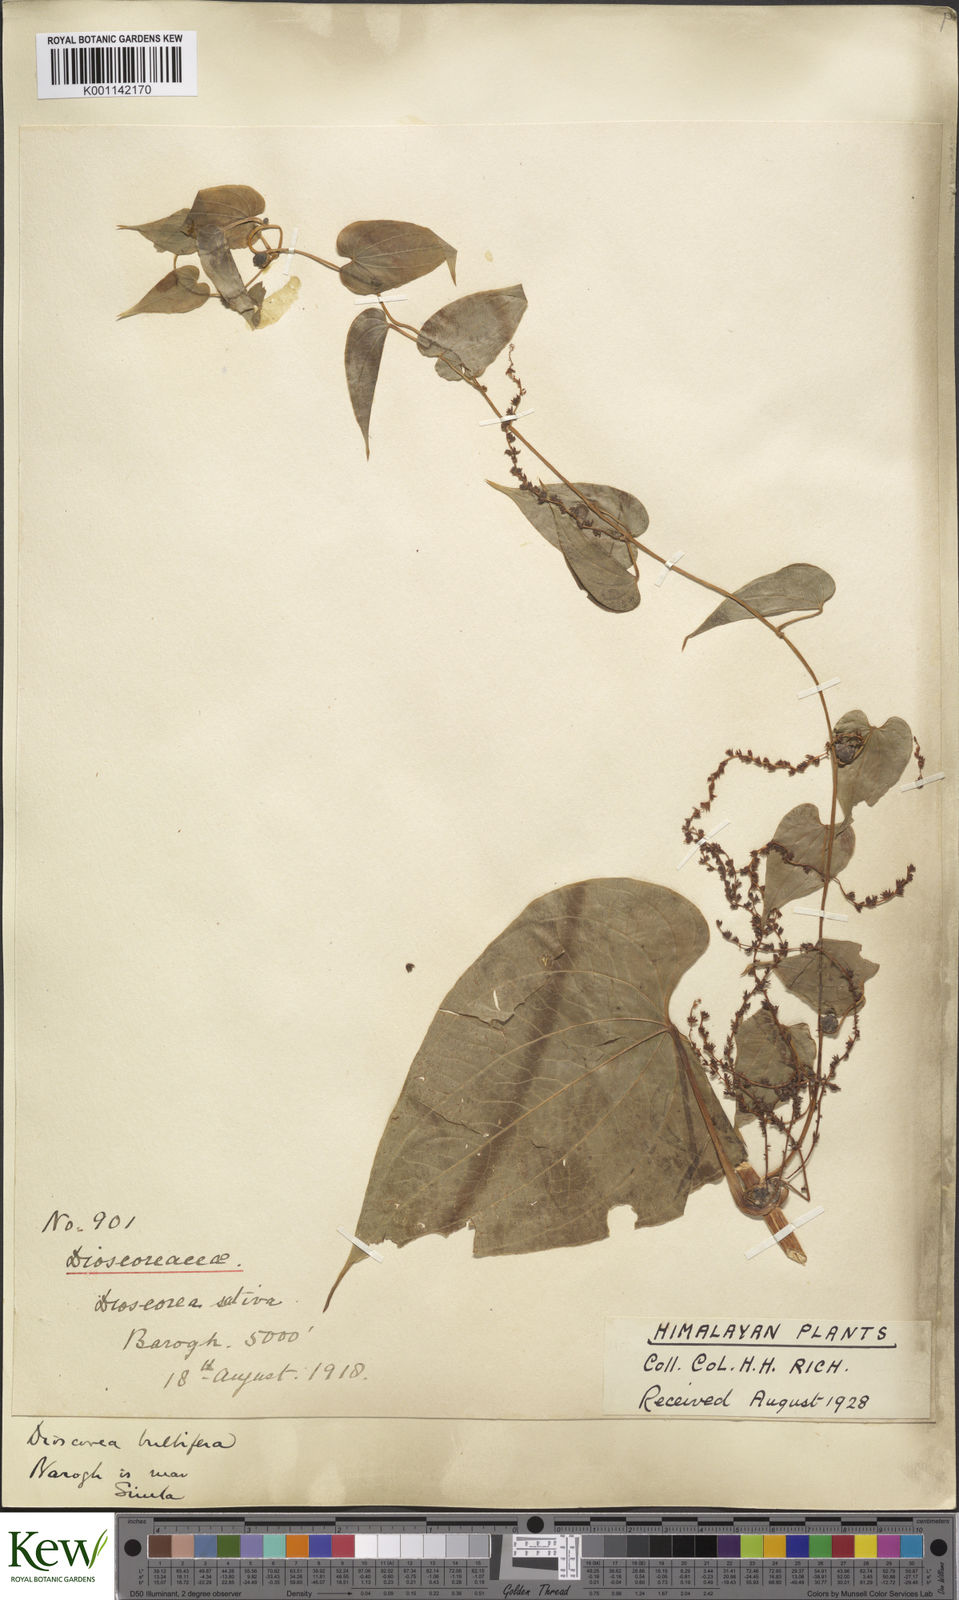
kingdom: Plantae
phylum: Tracheophyta
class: Liliopsida
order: Dioscoreales
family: Dioscoreaceae
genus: Dioscorea
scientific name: Dioscorea bulbifera
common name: Air yam
